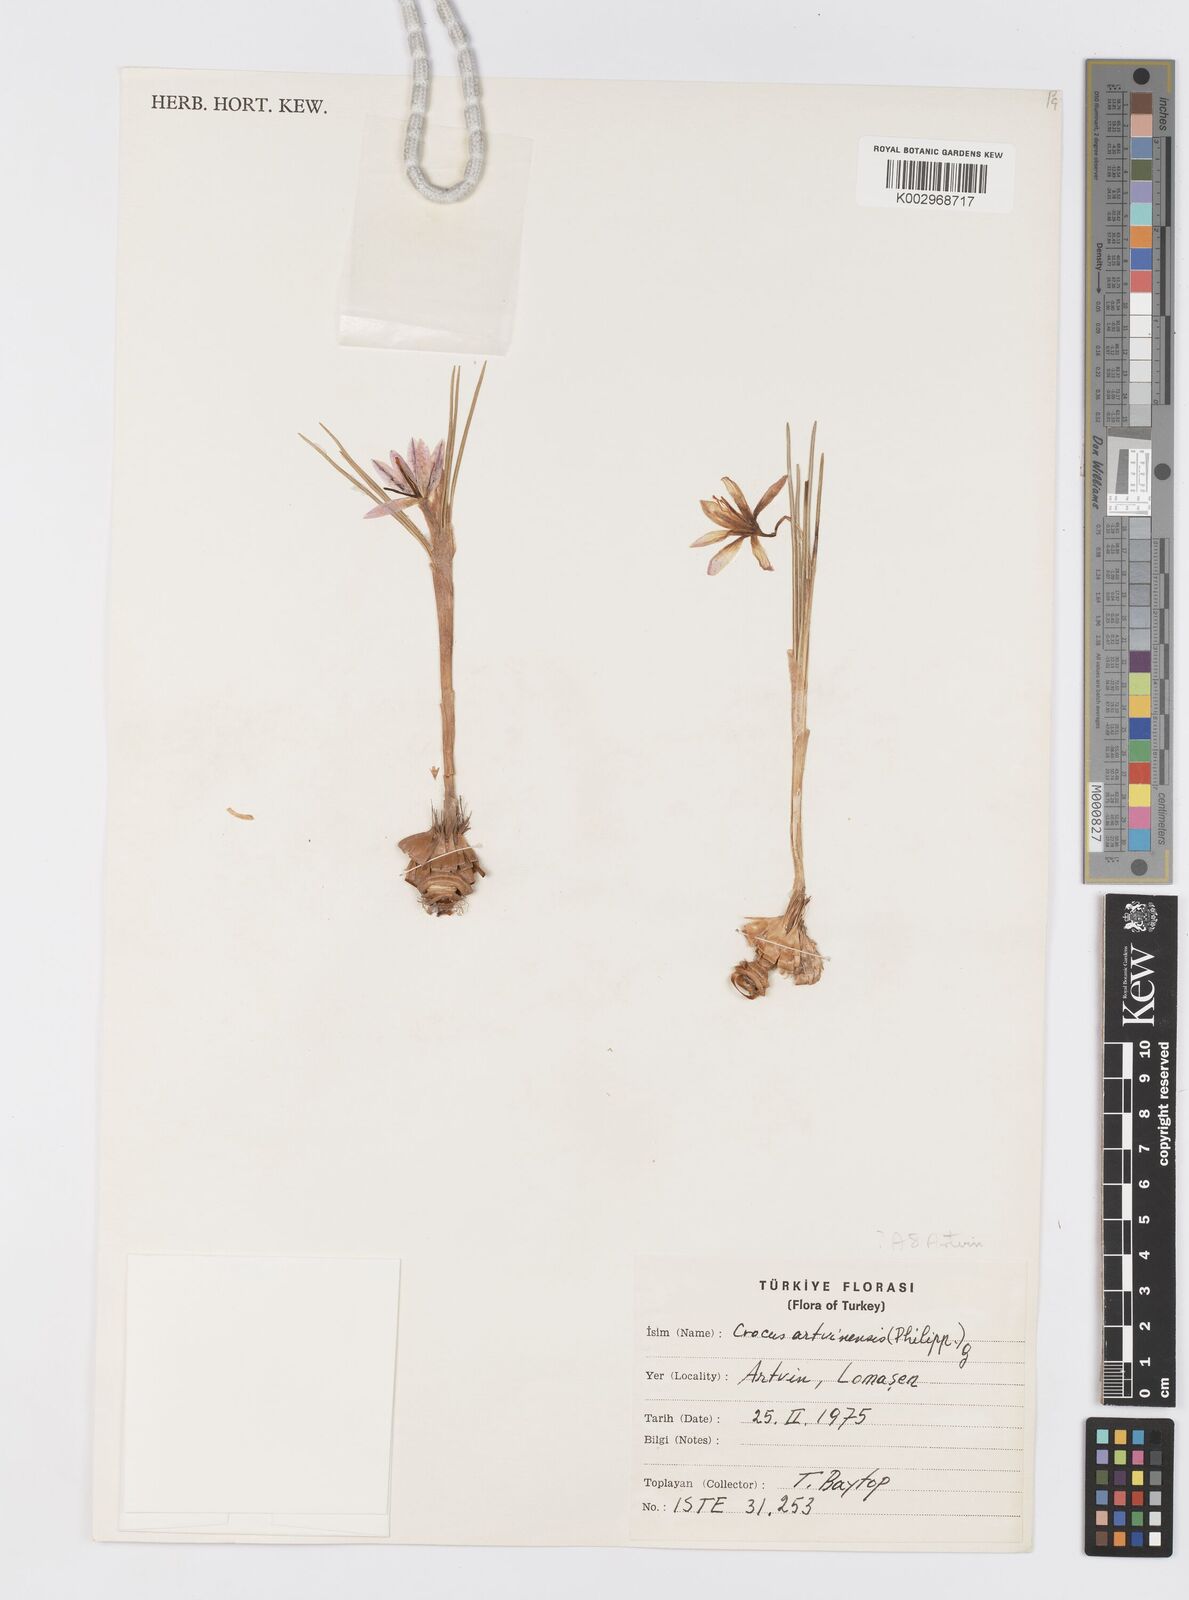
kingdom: Plantae
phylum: Tracheophyta
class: Liliopsida
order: Asparagales
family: Iridaceae
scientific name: Iridaceae
